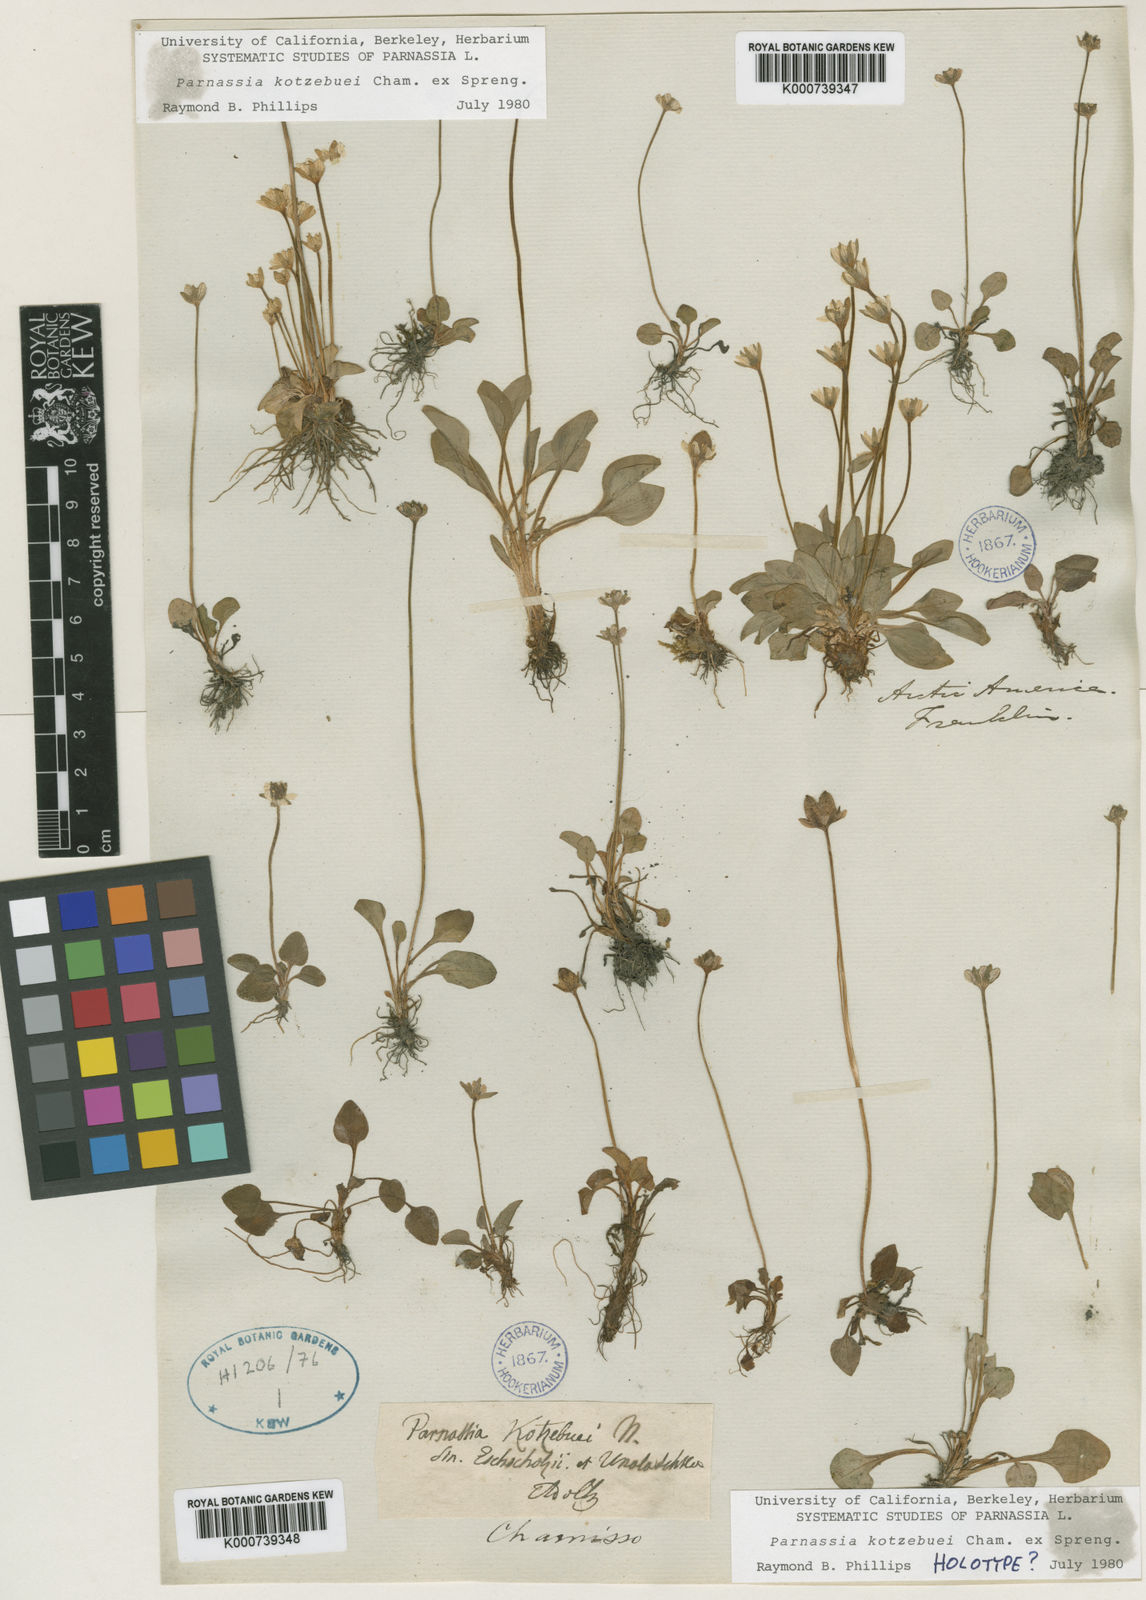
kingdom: Plantae
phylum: Tracheophyta
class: Magnoliopsida
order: Celastrales
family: Parnassiaceae
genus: Parnassia
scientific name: Parnassia kotzebuei
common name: Kotzebue's grass-of-parnassus
